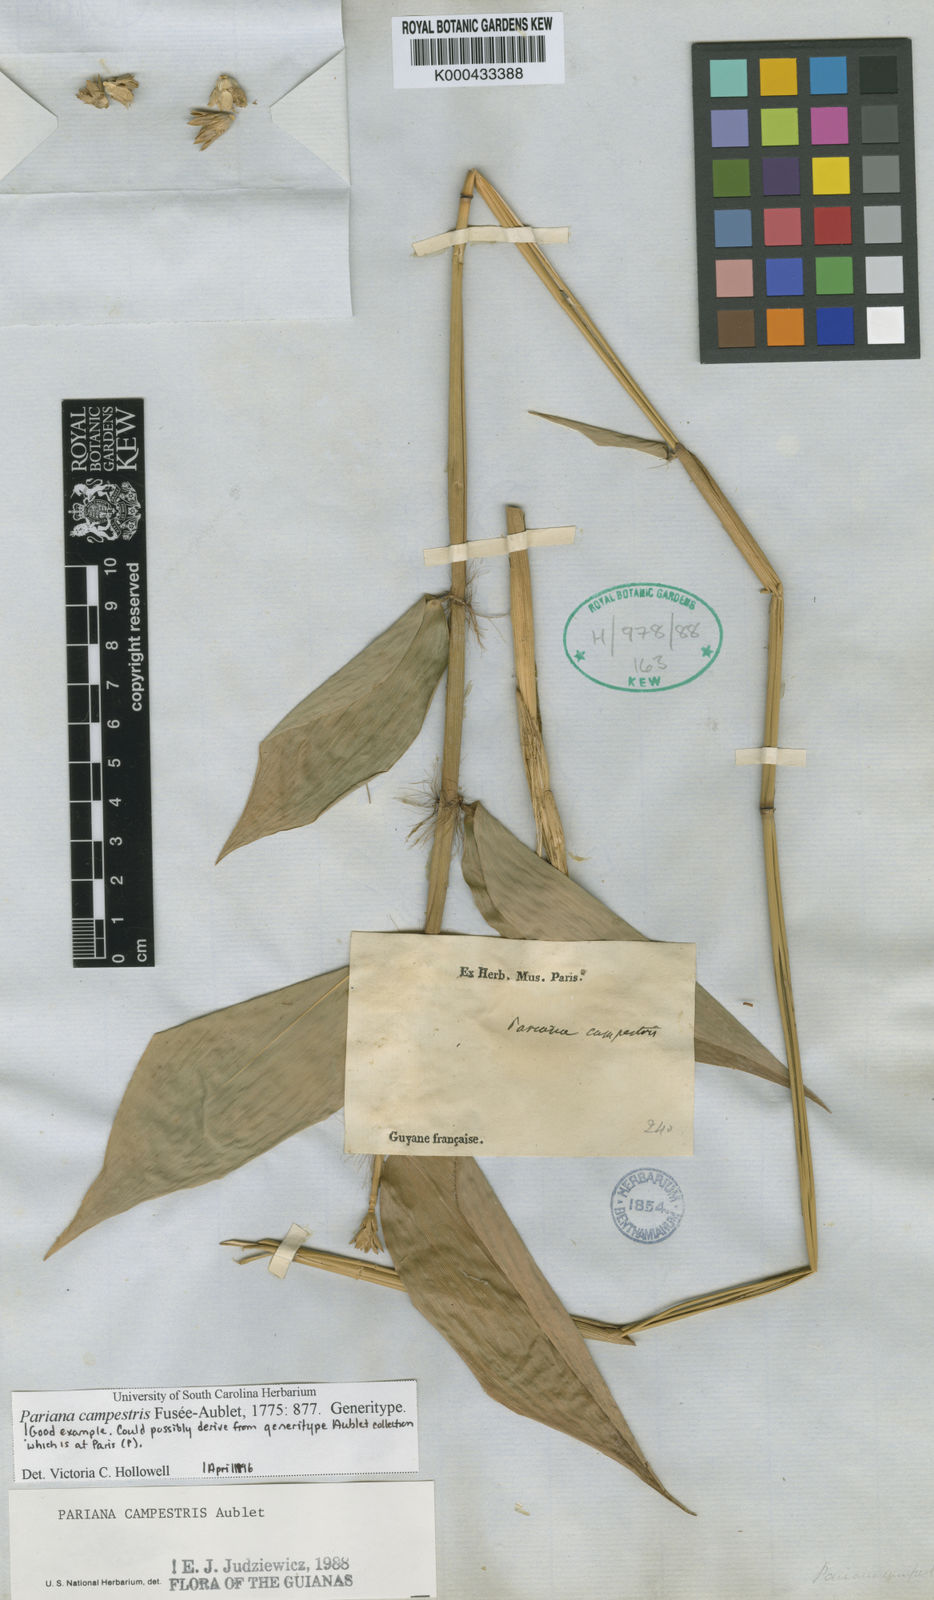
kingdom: Plantae
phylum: Tracheophyta
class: Liliopsida
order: Poales
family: Poaceae
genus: Pariana
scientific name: Pariana campestris
